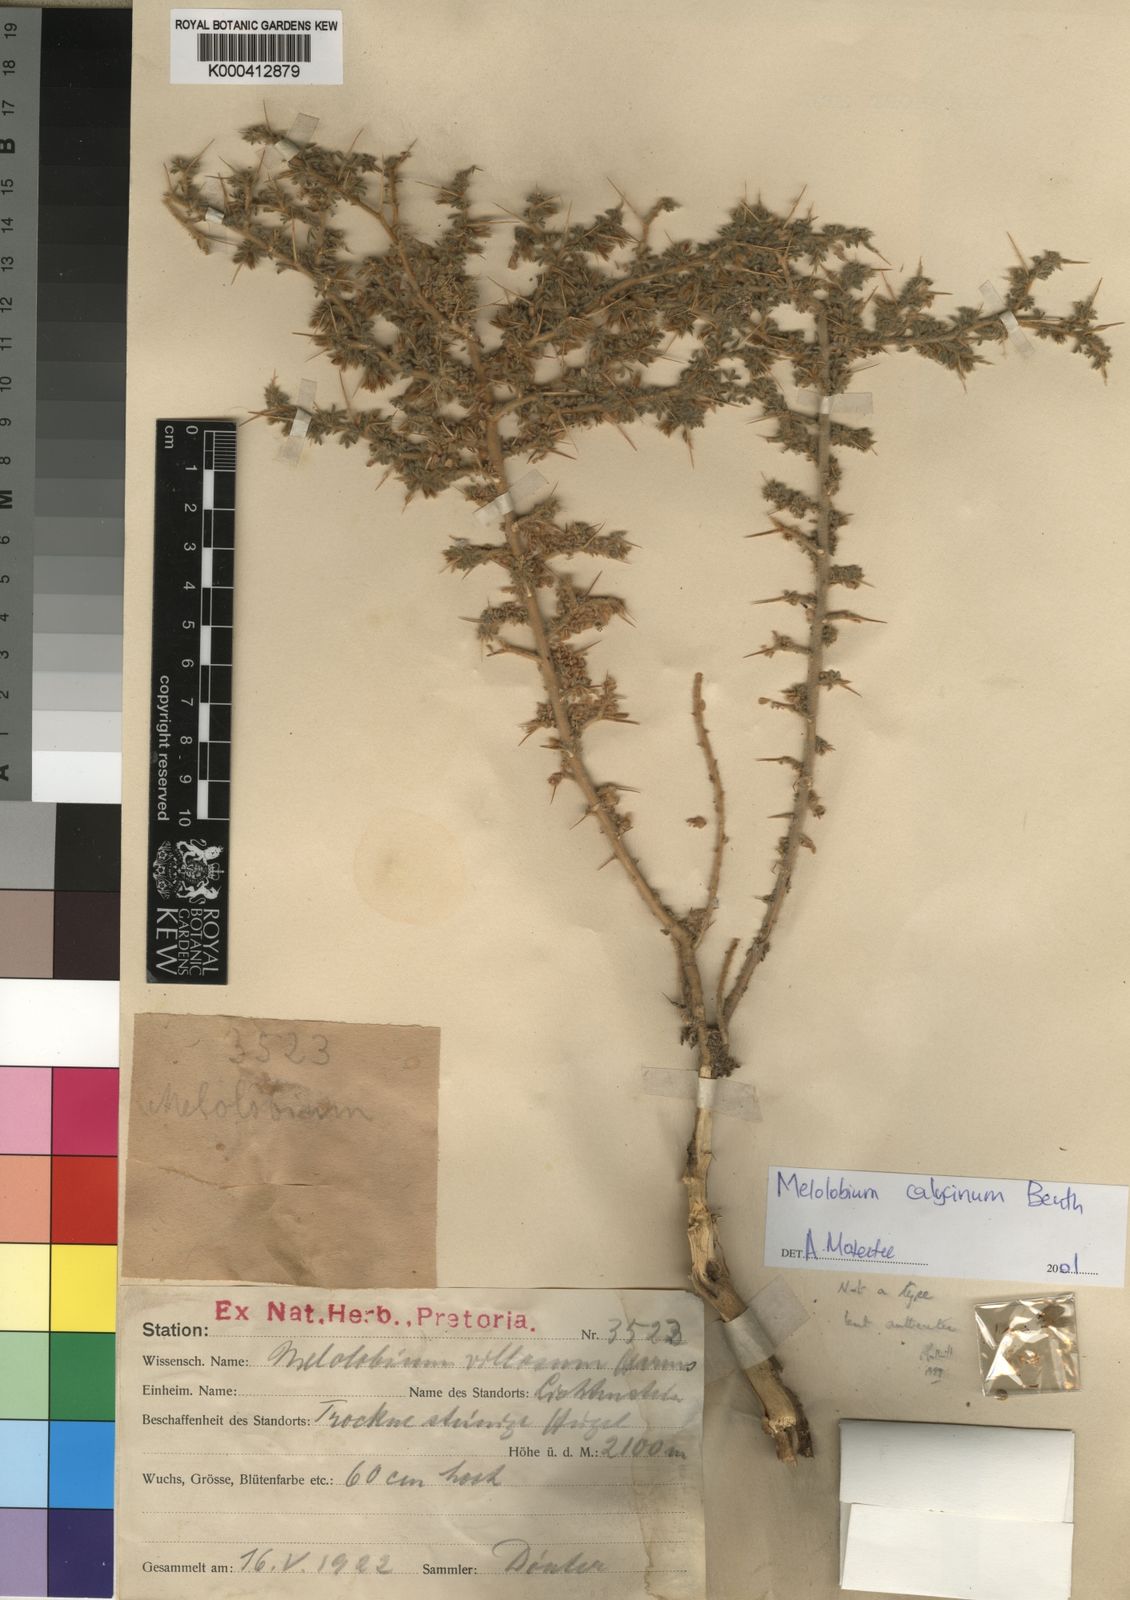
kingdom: Plantae
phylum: Tracheophyta
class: Magnoliopsida
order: Fabales
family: Fabaceae
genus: Melolobium
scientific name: Melolobium calycinum
